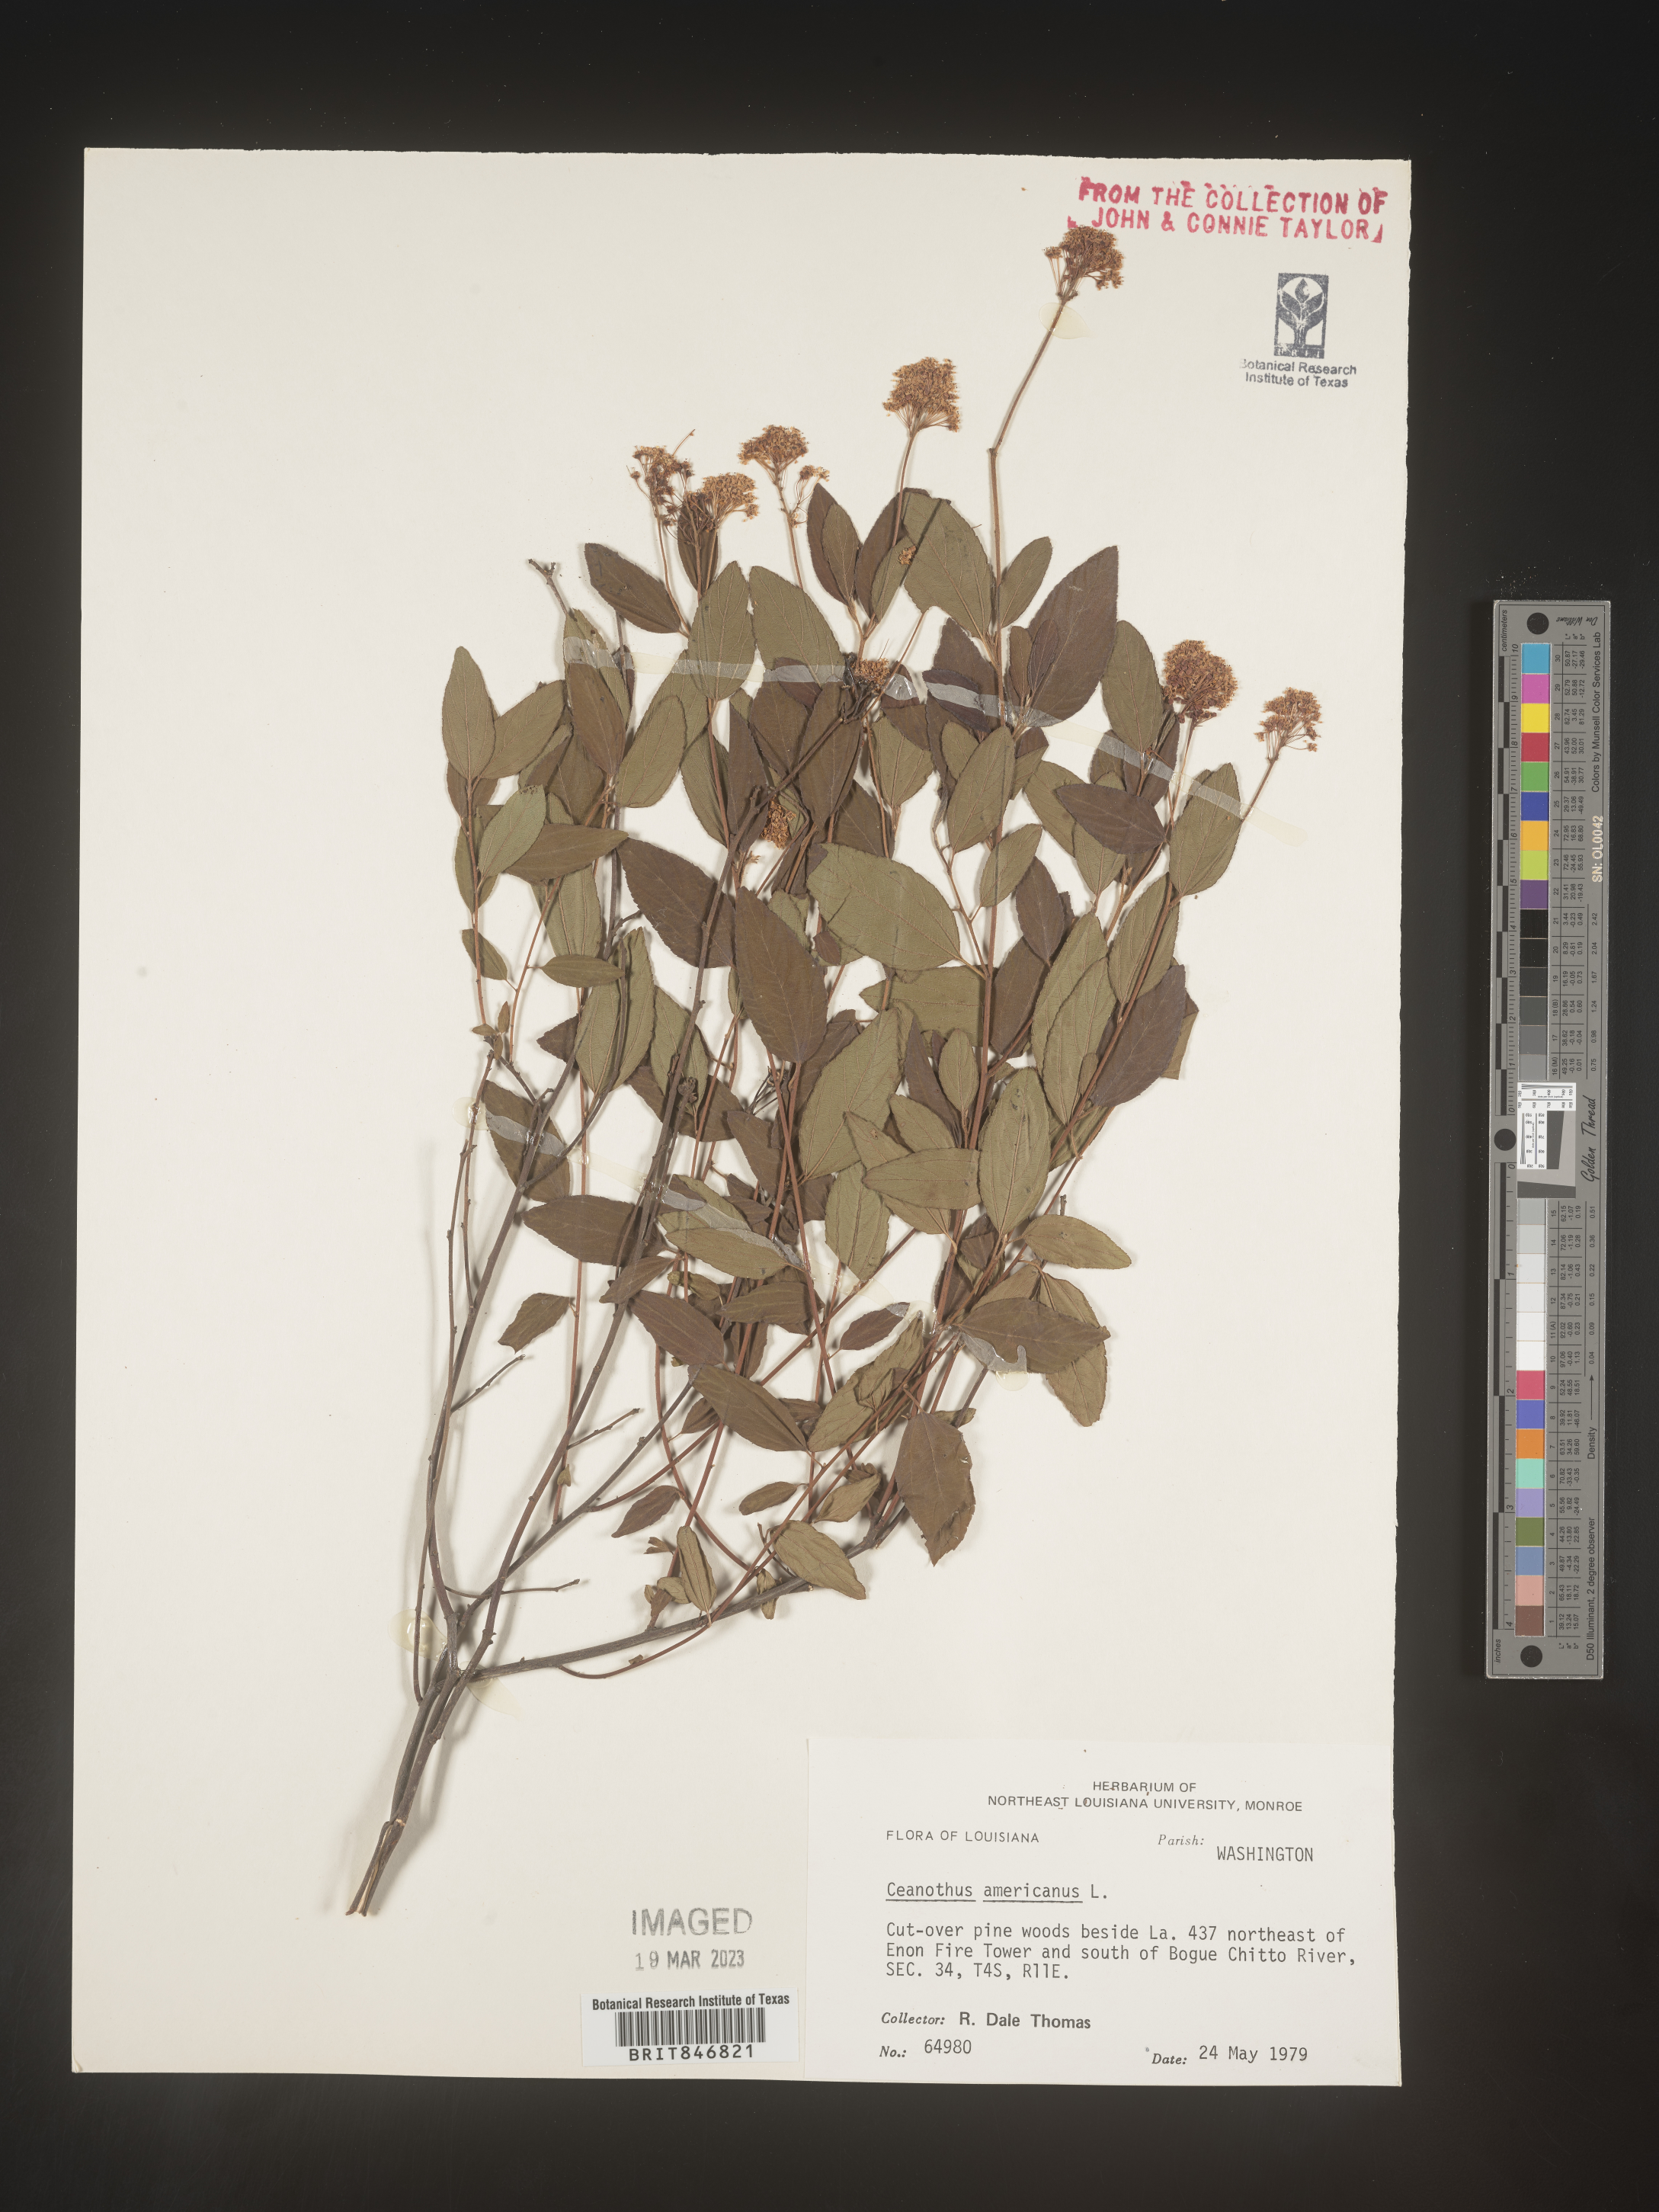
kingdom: Plantae
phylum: Tracheophyta
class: Magnoliopsida
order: Rosales
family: Rhamnaceae
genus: Ceanothus
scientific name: Ceanothus americanus
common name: Redroot
